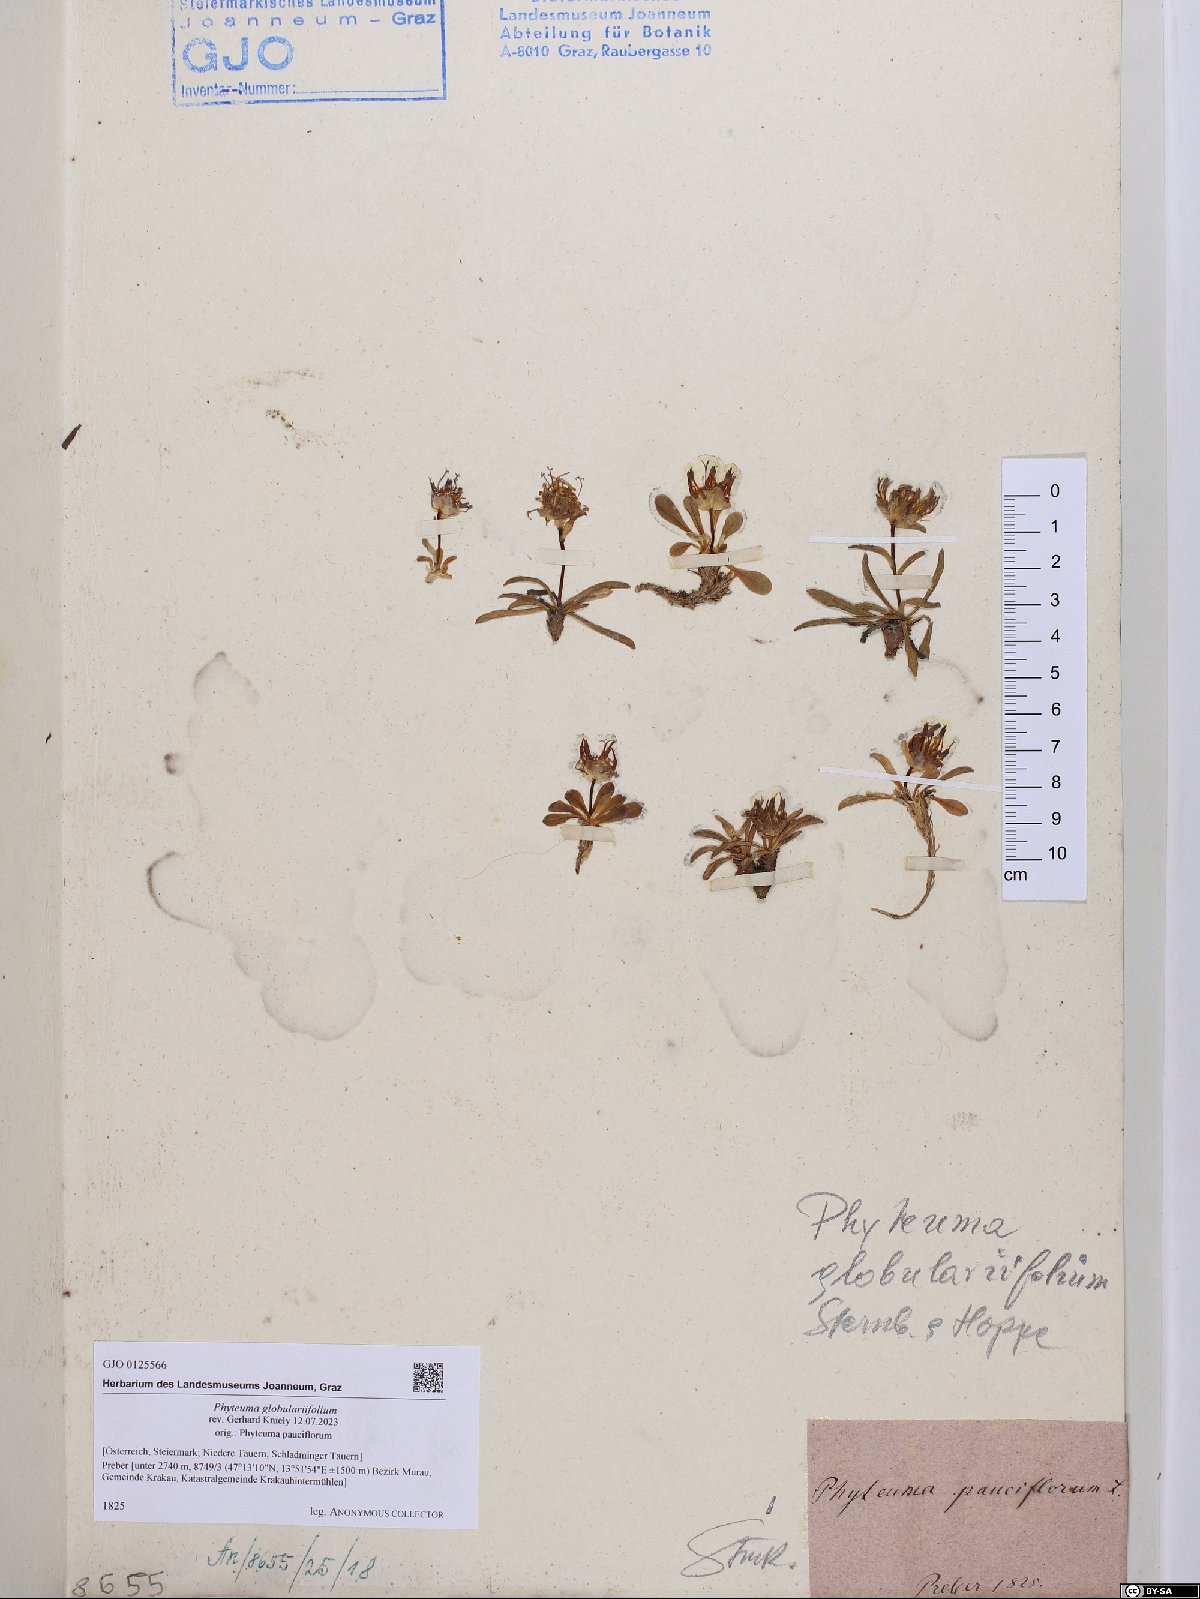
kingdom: Plantae
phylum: Tracheophyta
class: Magnoliopsida
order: Asterales
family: Campanulaceae
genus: Phyteuma
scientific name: Phyteuma globulariifolium
